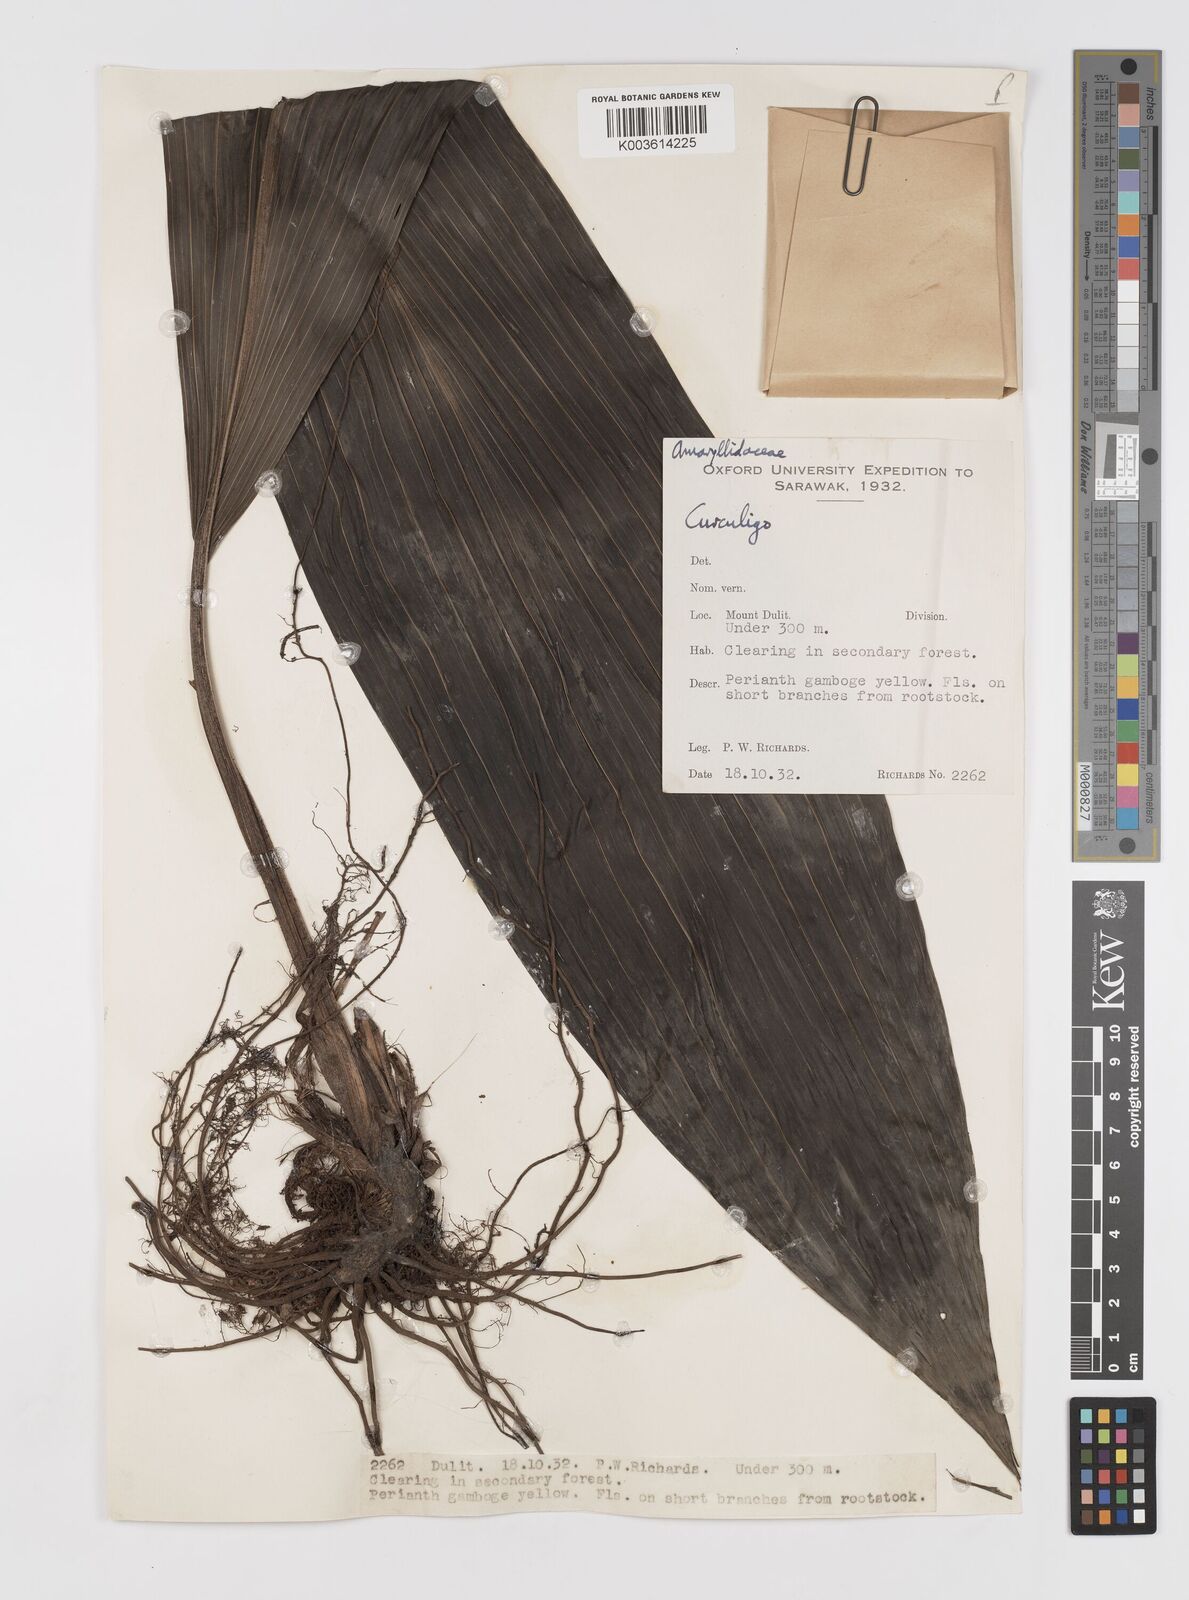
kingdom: Plantae
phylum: Tracheophyta
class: Liliopsida
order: Asparagales
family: Hypoxidaceae
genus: Curculigo
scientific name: Curculigo
